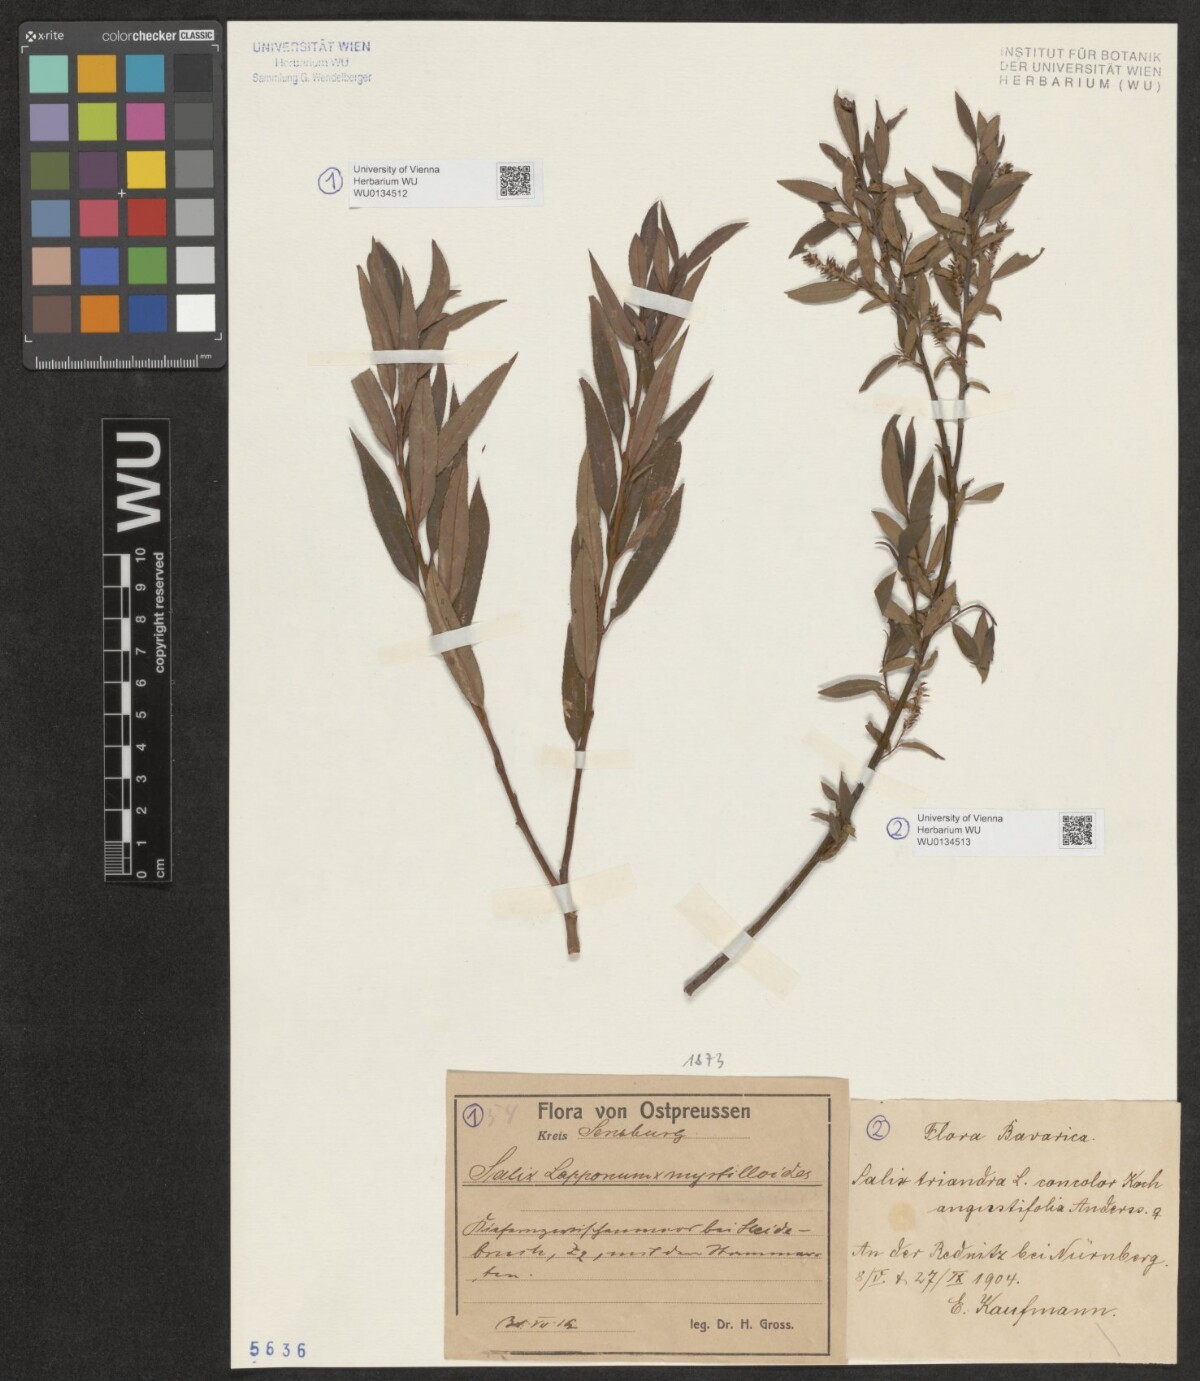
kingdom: Plantae
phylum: Tracheophyta
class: Magnoliopsida
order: Malpighiales
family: Salicaceae
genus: Salix
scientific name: Salix lapponum
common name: Downy willow
